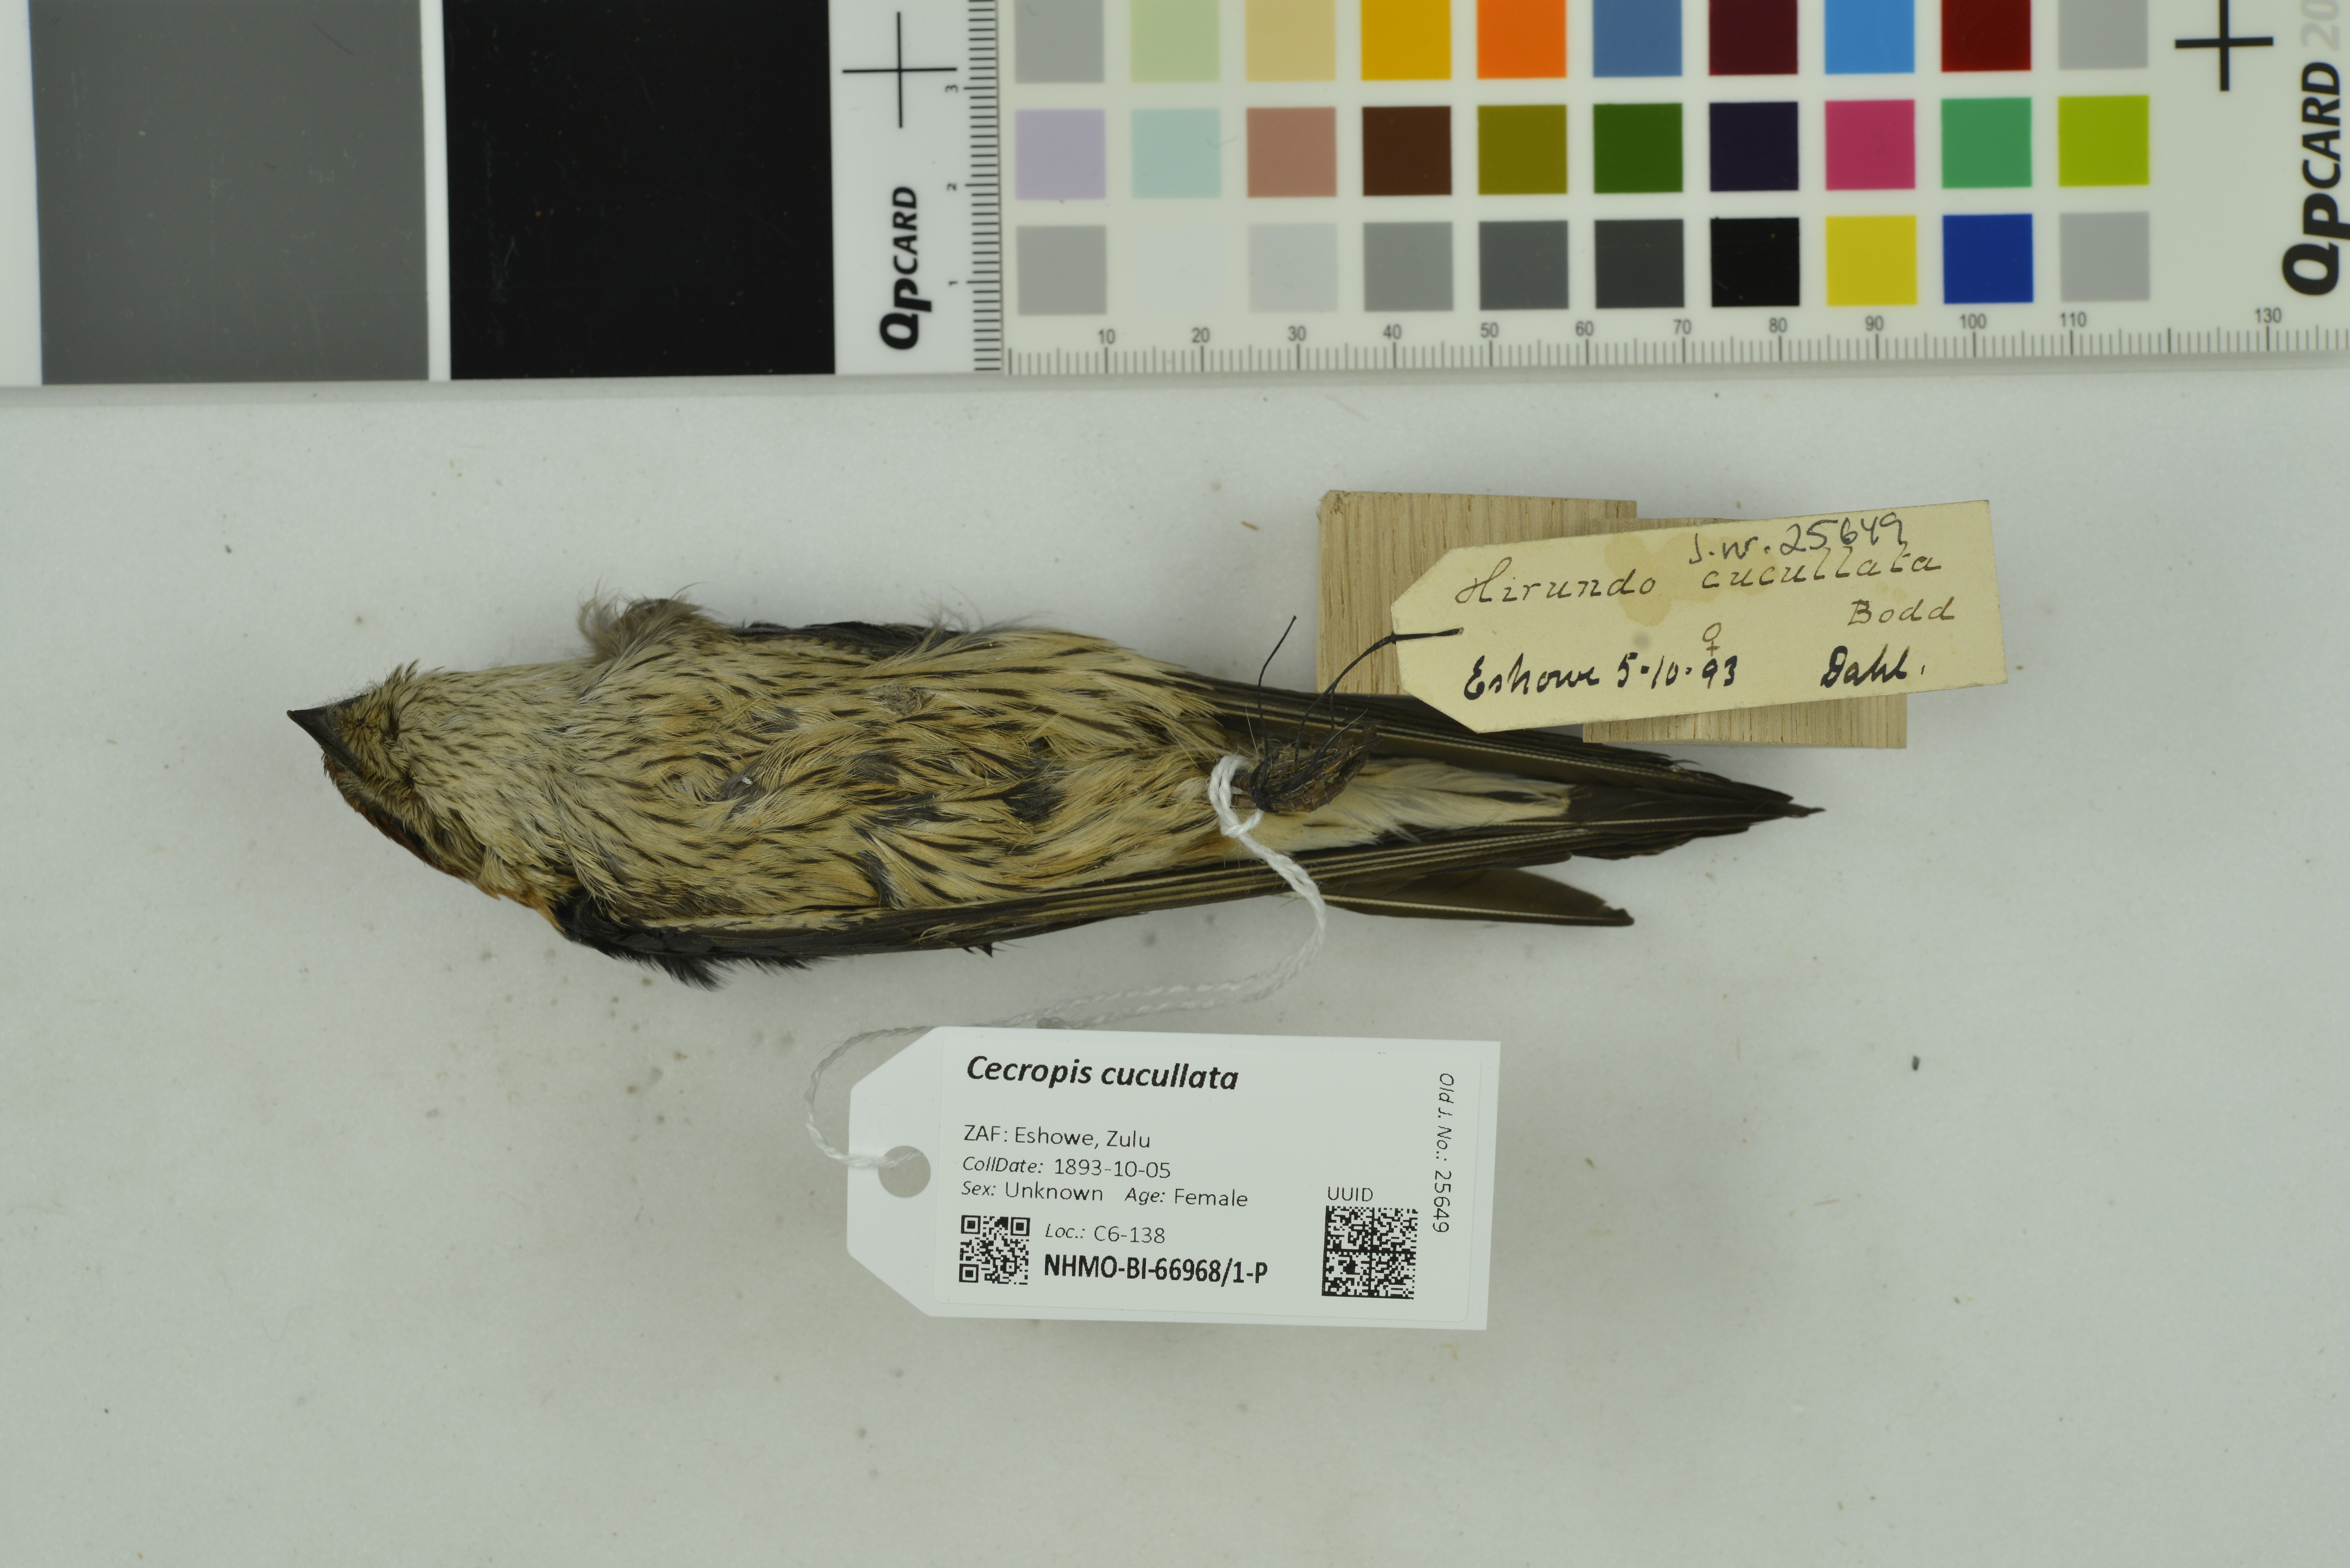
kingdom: Animalia
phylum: Chordata
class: Aves
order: Passeriformes
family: Hirundinidae
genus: Cecropis
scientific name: Cecropis cucullata
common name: Greater striped-swallow
